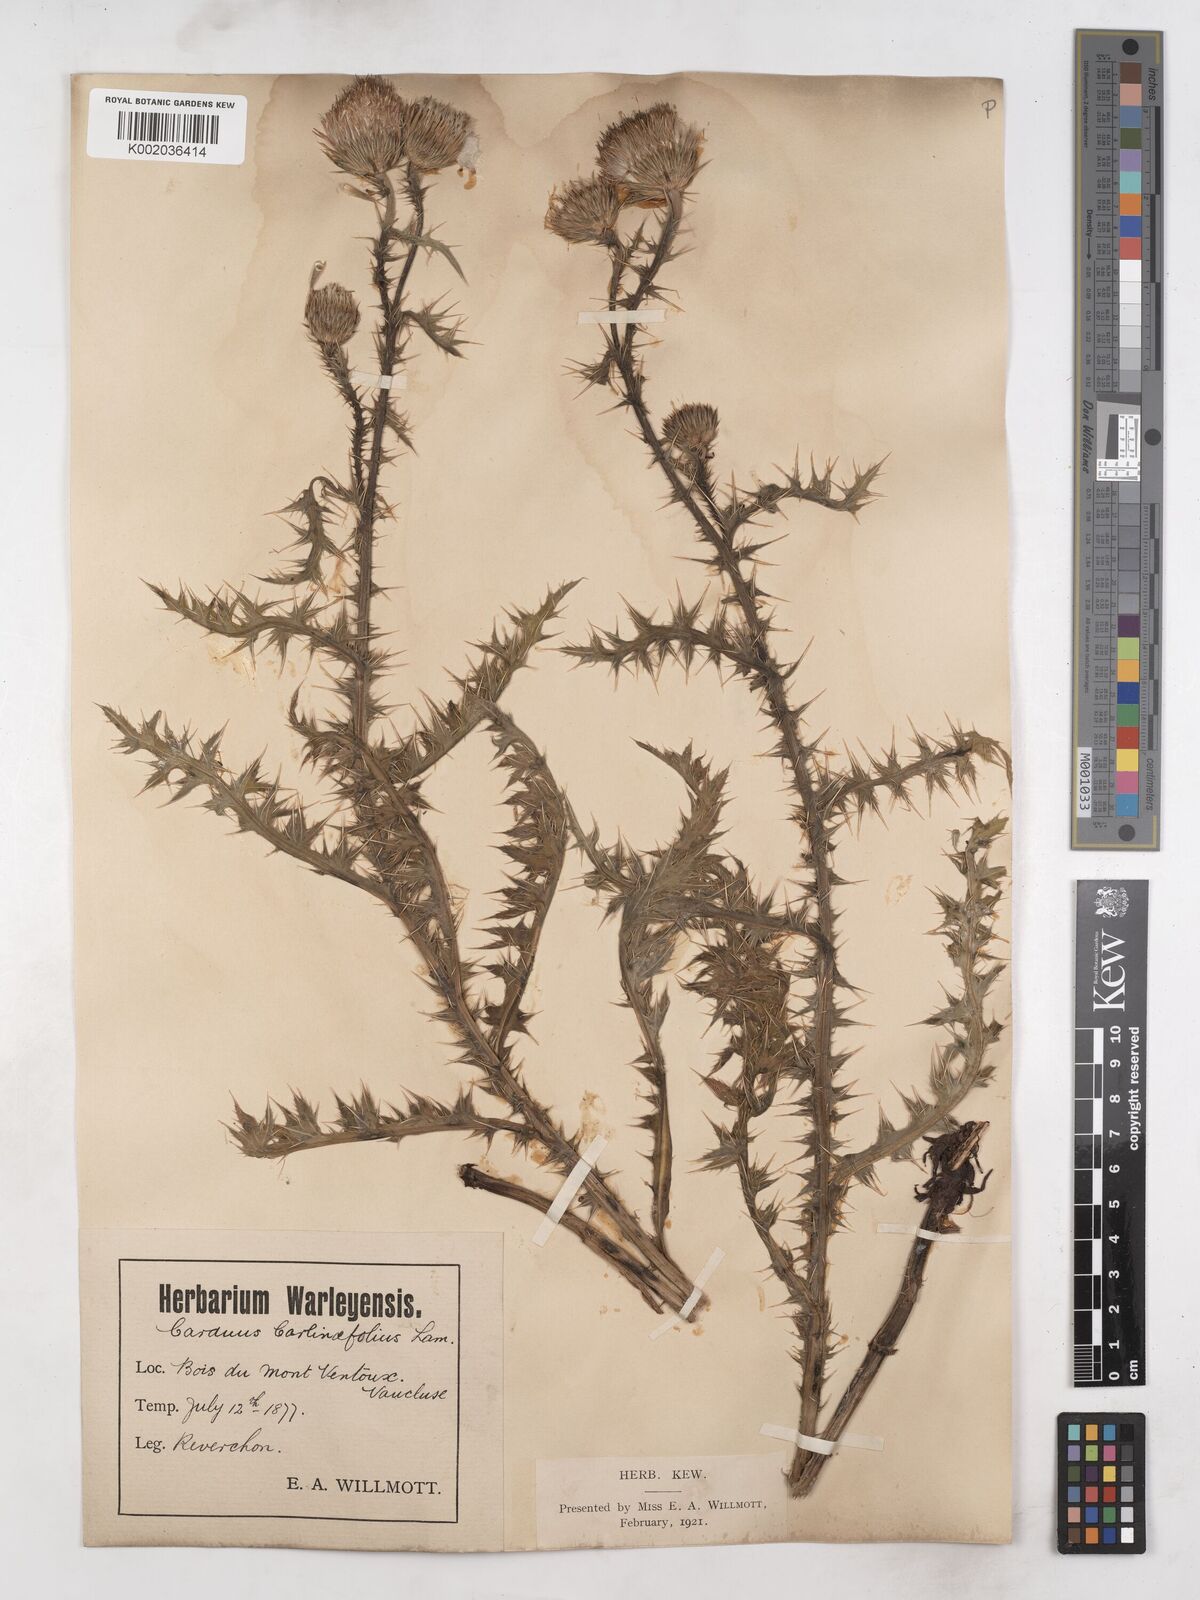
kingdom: Plantae
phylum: Tracheophyta
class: Magnoliopsida
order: Asterales
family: Asteraceae
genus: Carduus
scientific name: Carduus carlinifolius
